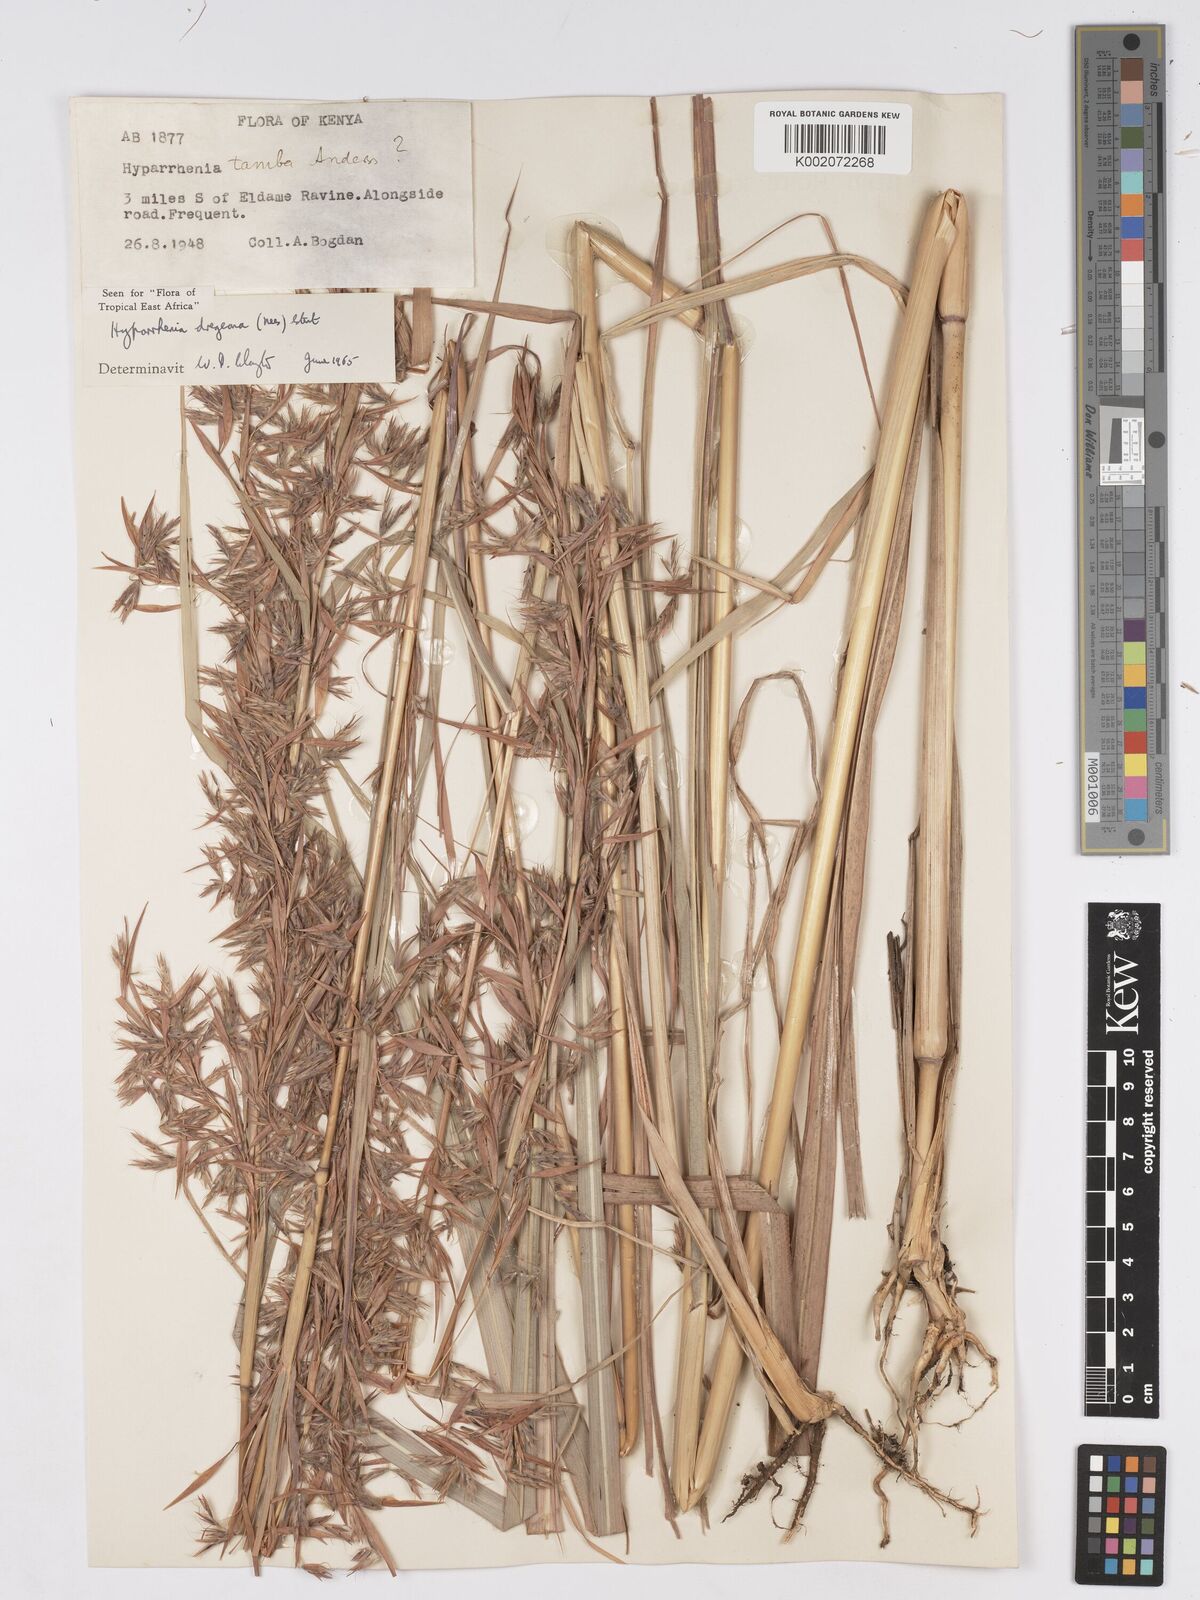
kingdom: Plantae
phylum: Tracheophyta
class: Liliopsida
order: Poales
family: Poaceae
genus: Hyparrhenia
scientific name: Hyparrhenia dregeana
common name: Silky thatching grass
